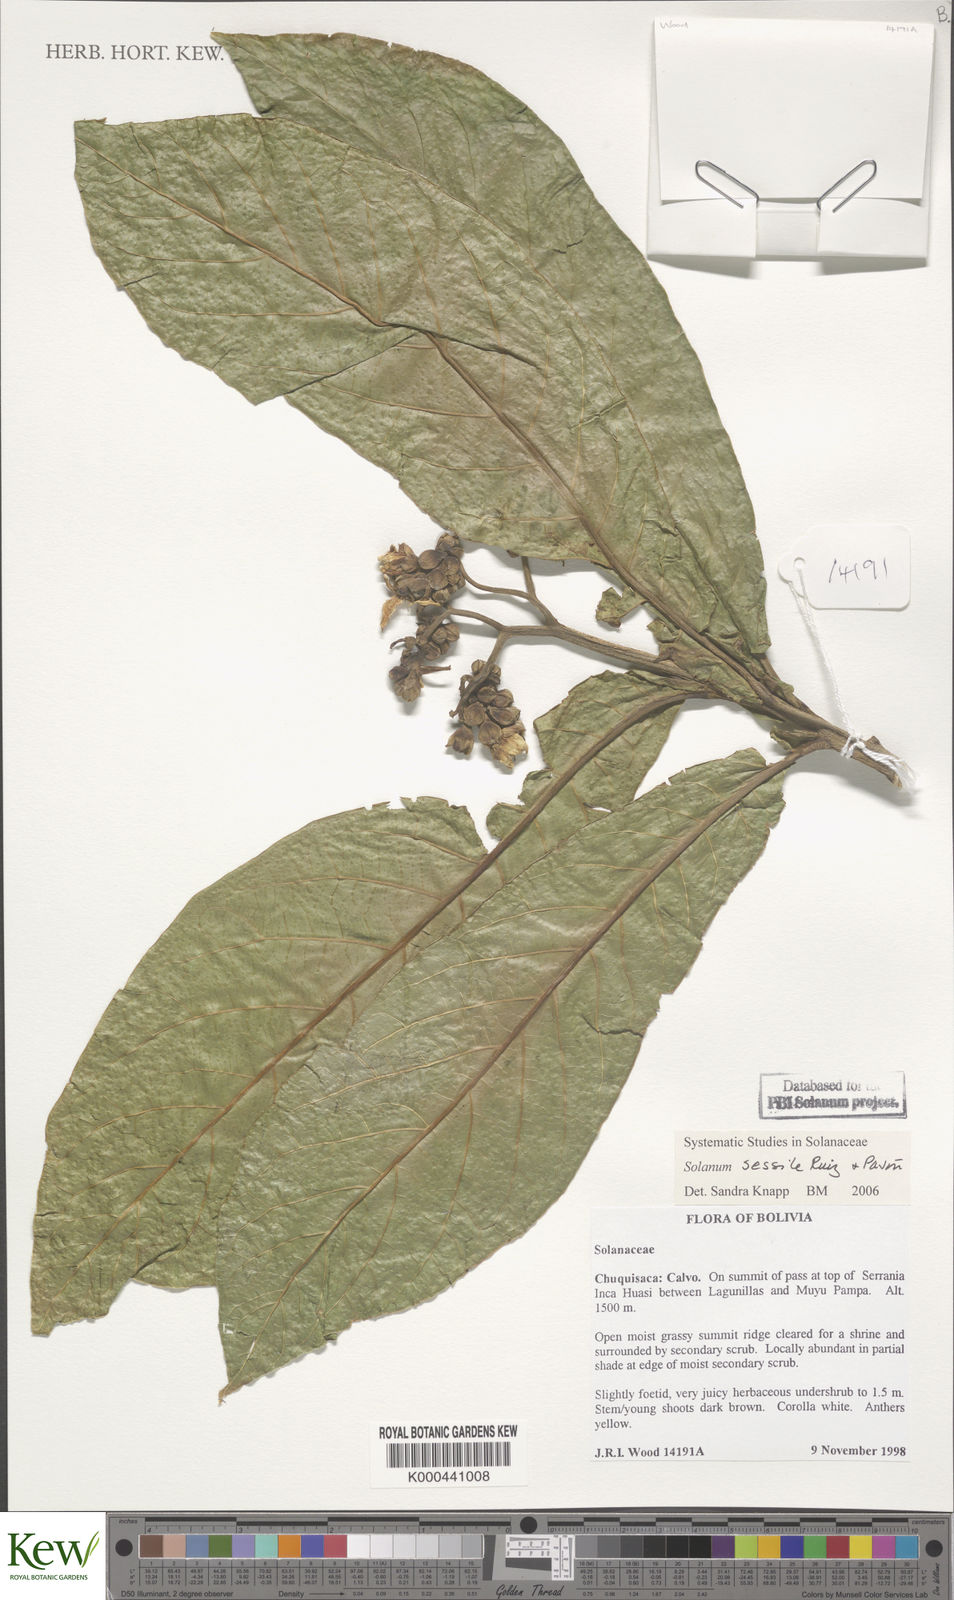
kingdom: Plantae
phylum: Tracheophyta
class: Magnoliopsida
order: Solanales
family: Solanaceae
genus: Solanum
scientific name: Solanum sessile
